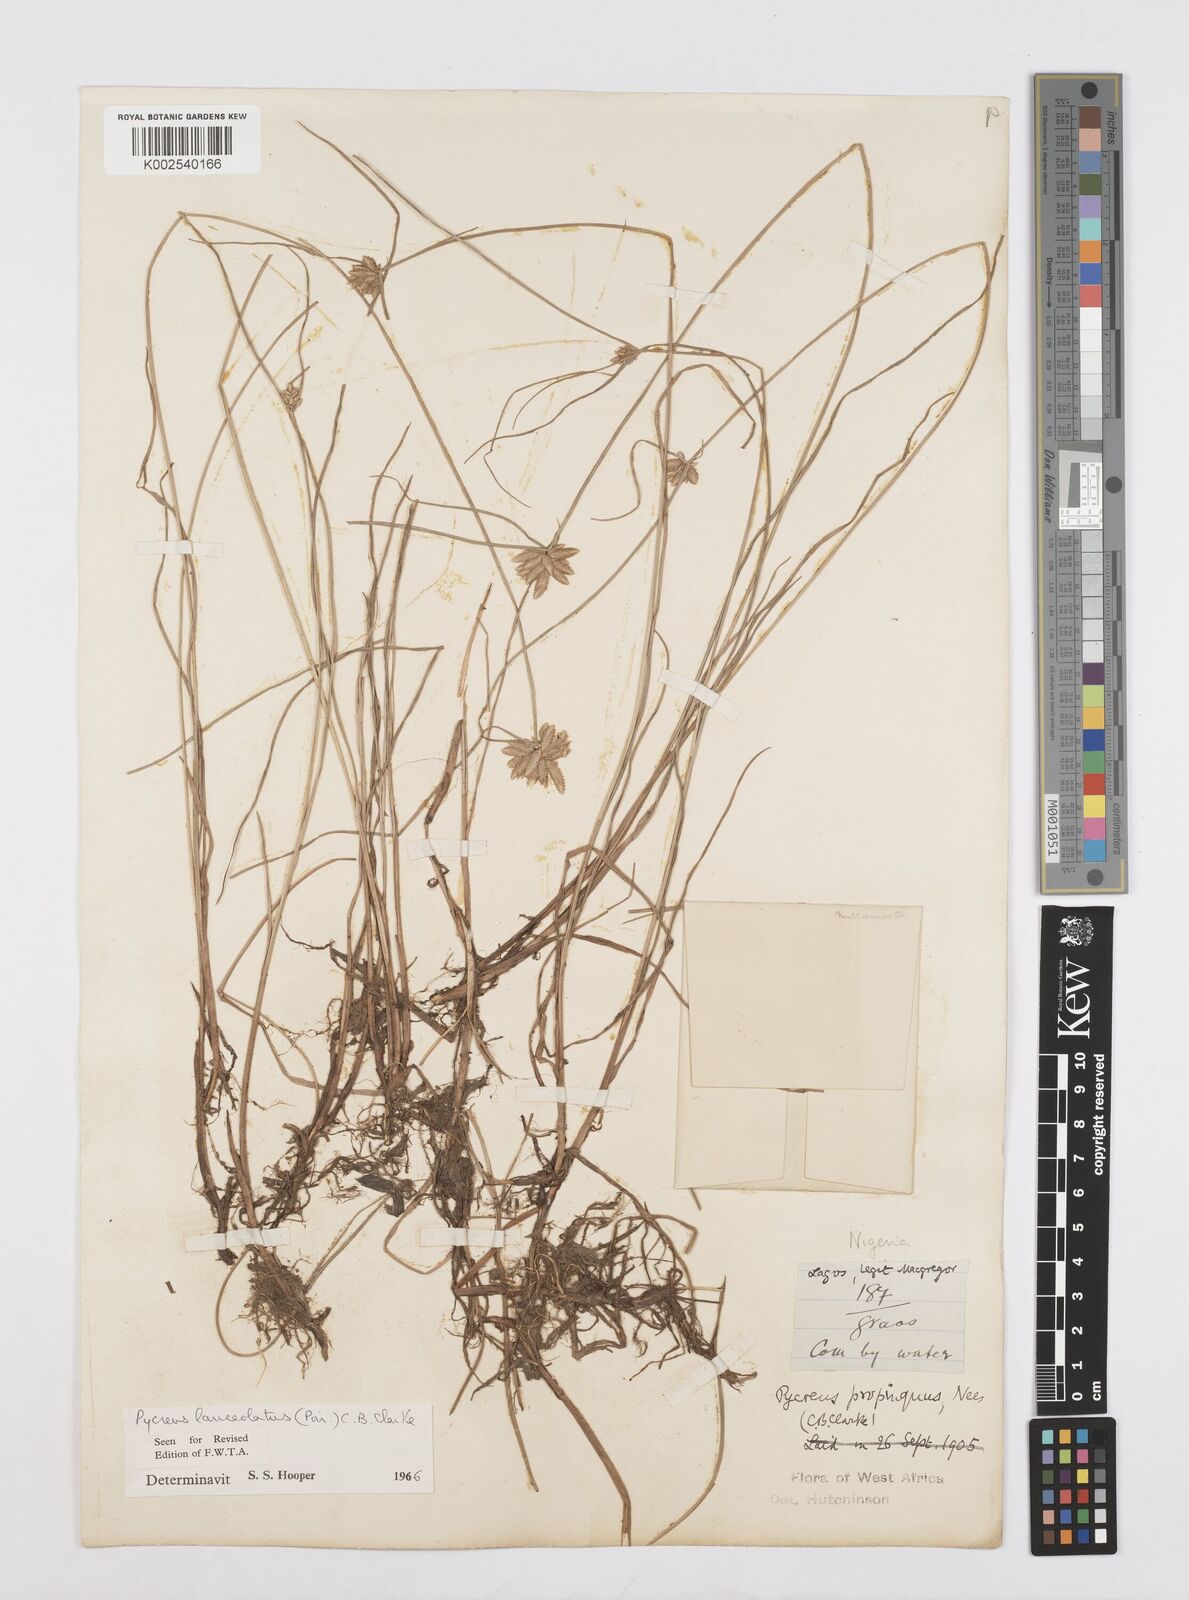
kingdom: Plantae
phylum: Tracheophyta
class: Liliopsida
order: Poales
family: Cyperaceae
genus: Cyperus
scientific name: Cyperus
